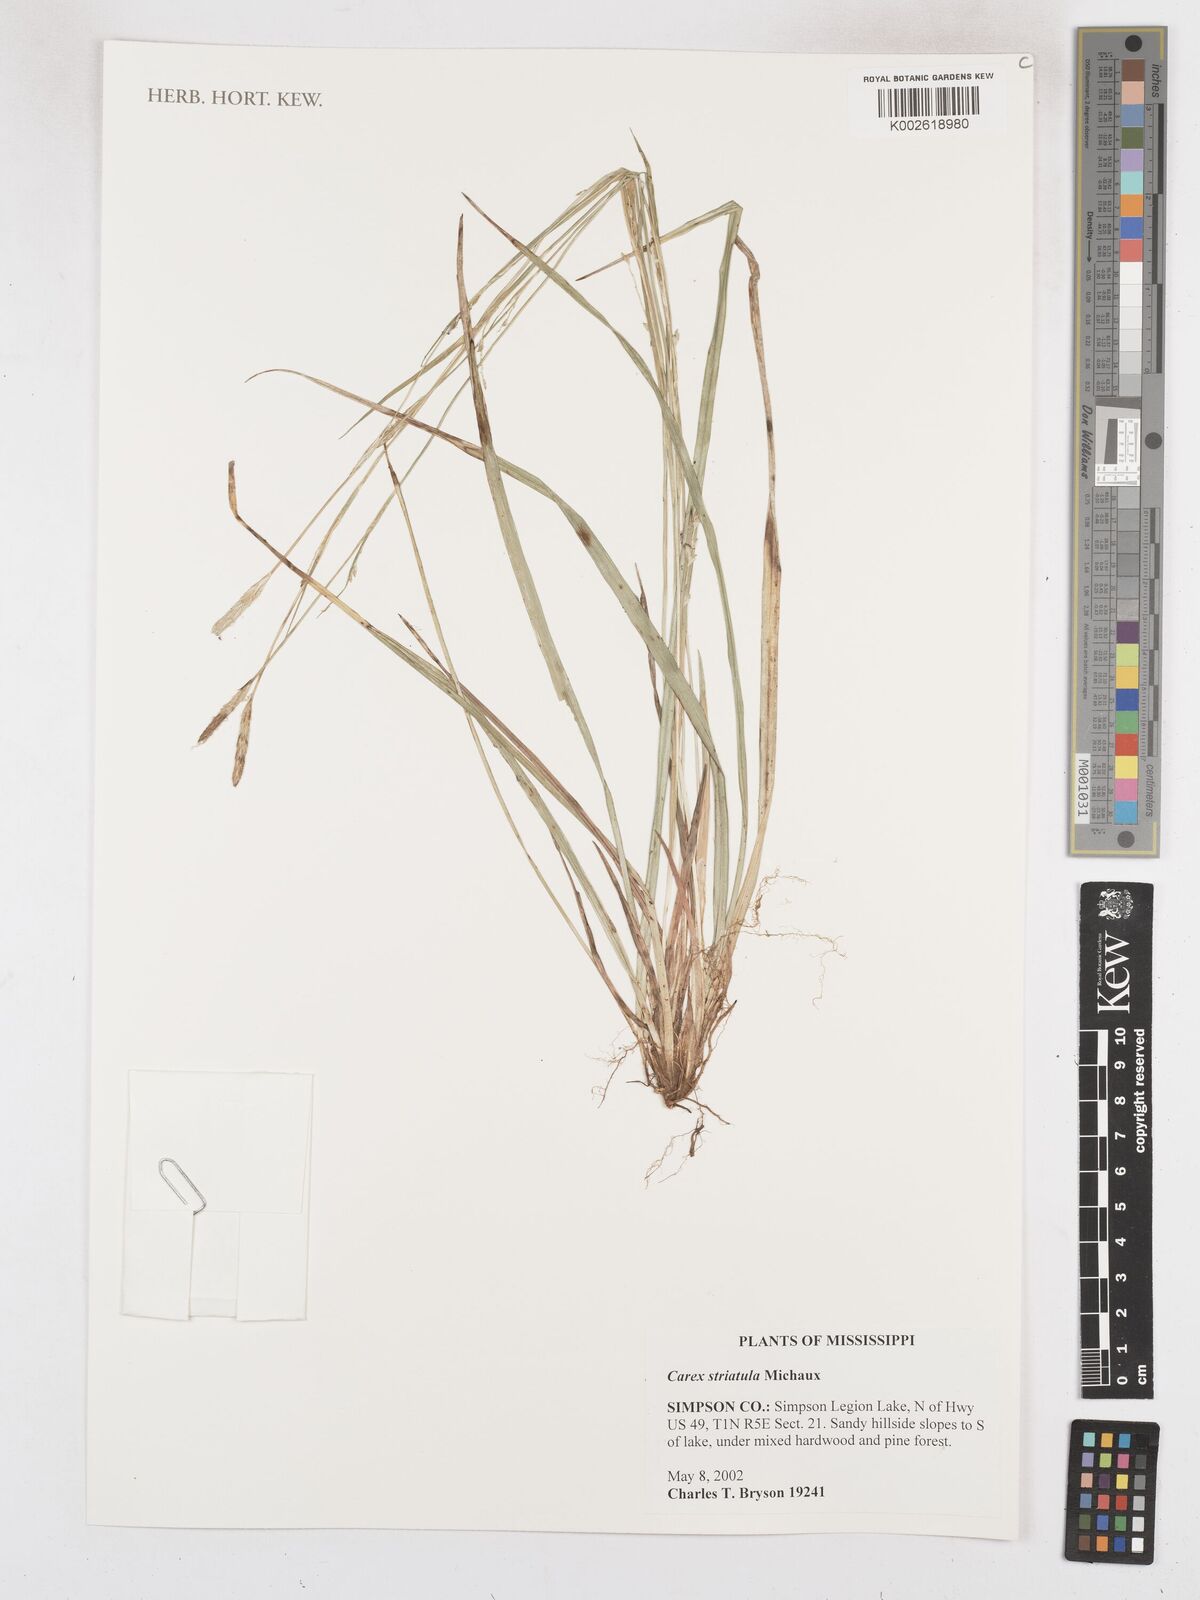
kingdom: Plantae
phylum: Tracheophyta
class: Liliopsida
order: Poales
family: Cyperaceae
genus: Carex
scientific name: Carex striatula
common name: Lined sedge
